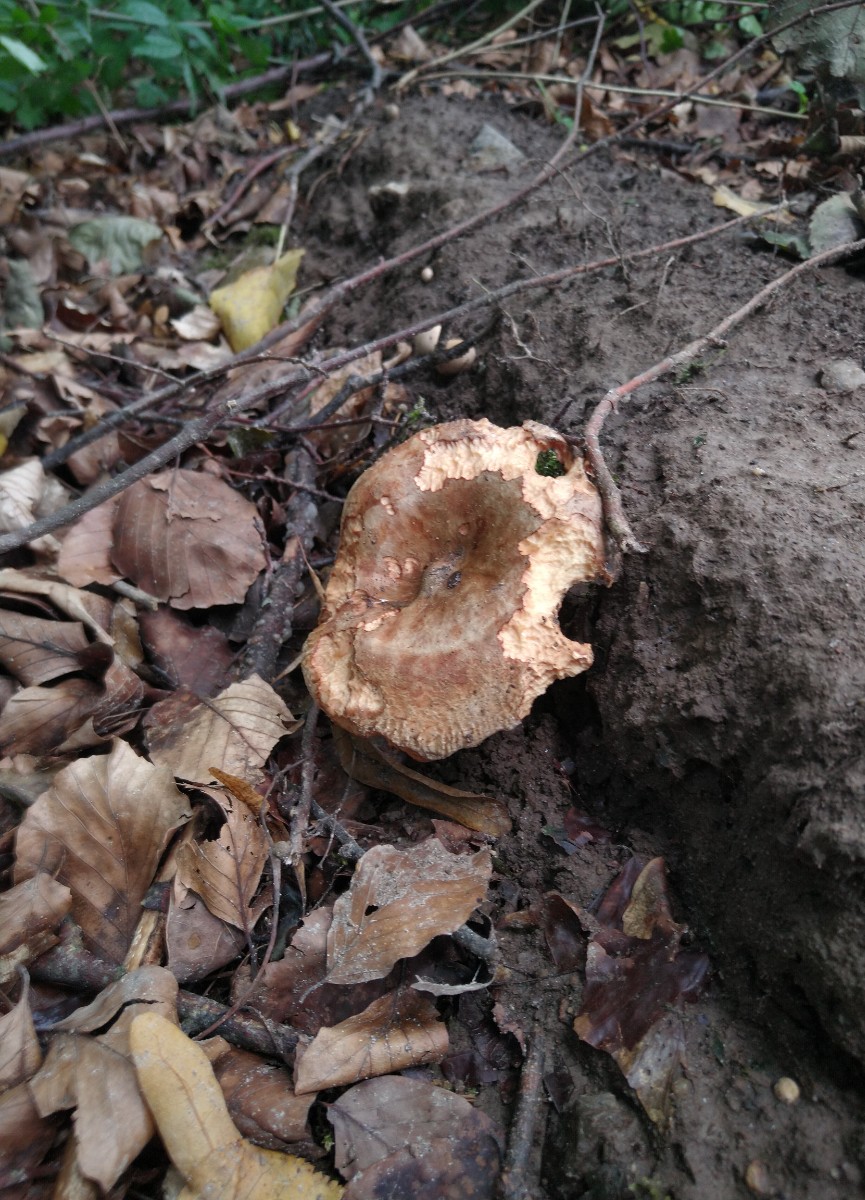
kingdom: Fungi
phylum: Basidiomycota
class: Agaricomycetes
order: Boletales
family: Paxillaceae
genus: Paxillus
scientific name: Paxillus
